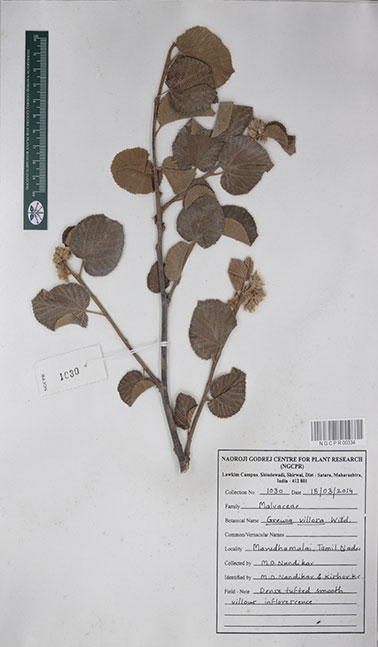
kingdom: Plantae
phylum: Tracheophyta
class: Magnoliopsida
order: Malvales
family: Malvaceae
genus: Grewia
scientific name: Grewia villosa
